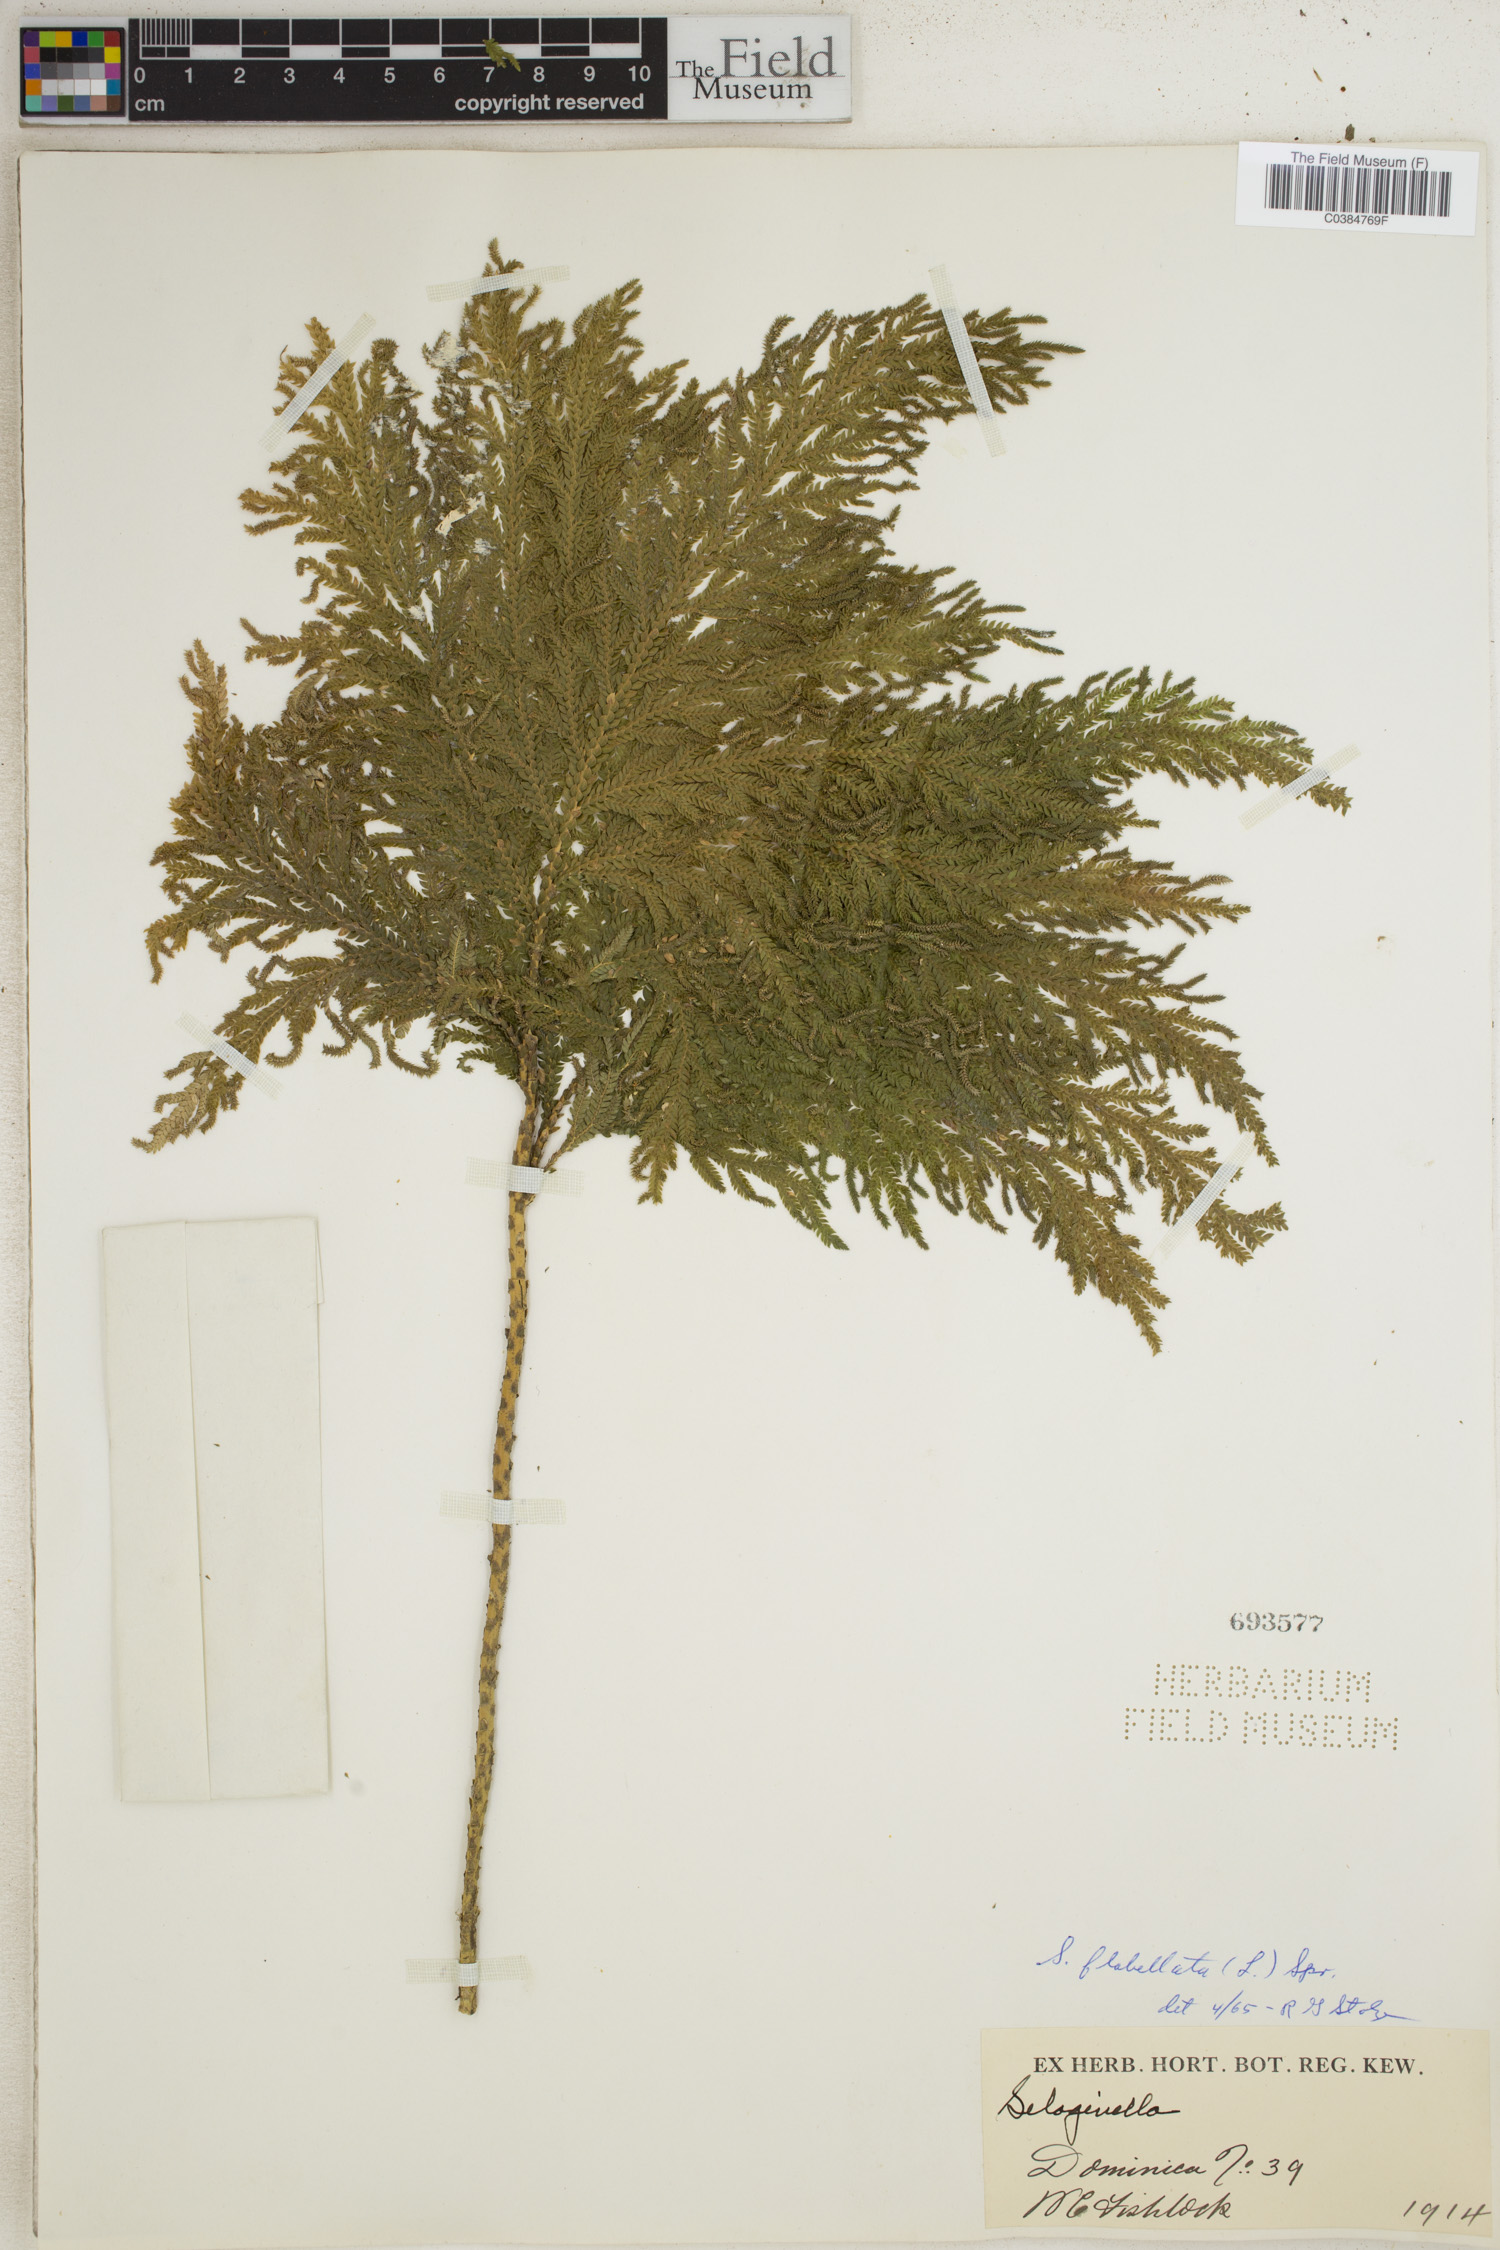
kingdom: Plantae
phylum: Tracheophyta
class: Lycopodiopsida
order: Selaginellales
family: Selaginellaceae
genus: Selaginella
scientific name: Selaginella flabellata
